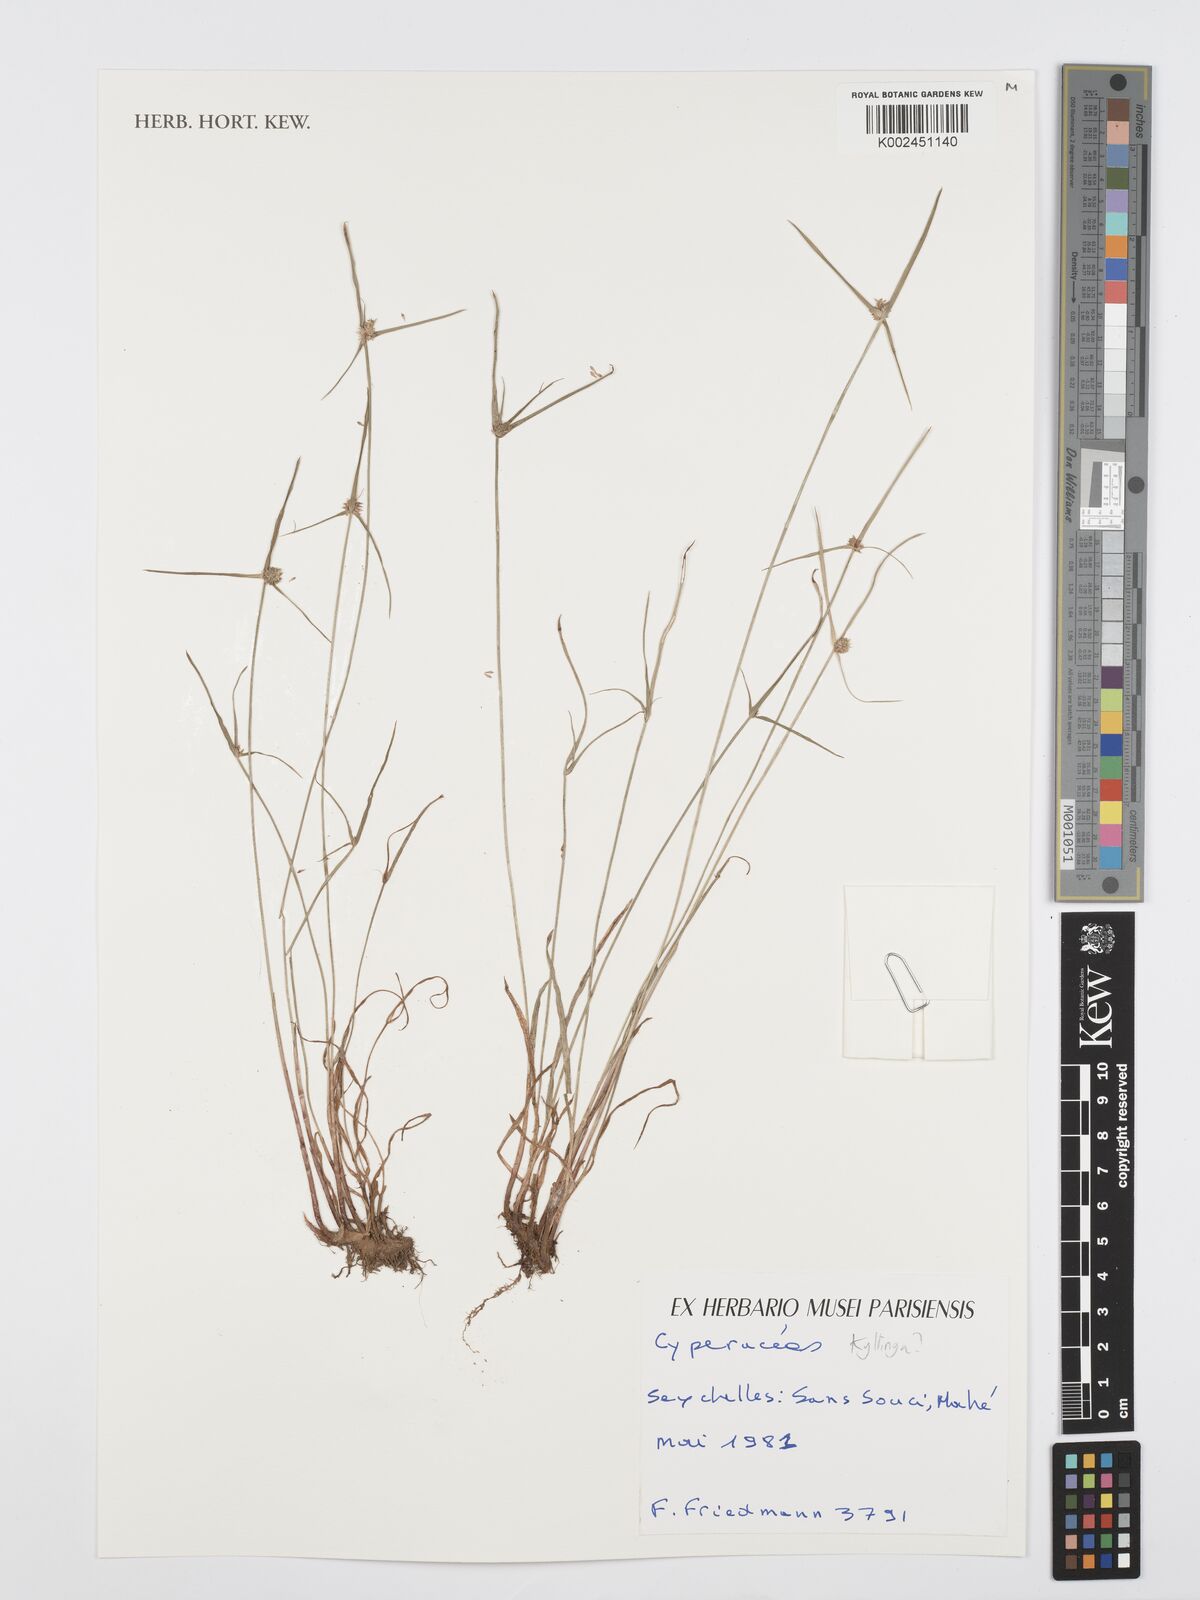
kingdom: Plantae
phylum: Tracheophyta
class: Liliopsida
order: Poales
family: Cyperaceae
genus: Cyperus
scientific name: Cyperus
